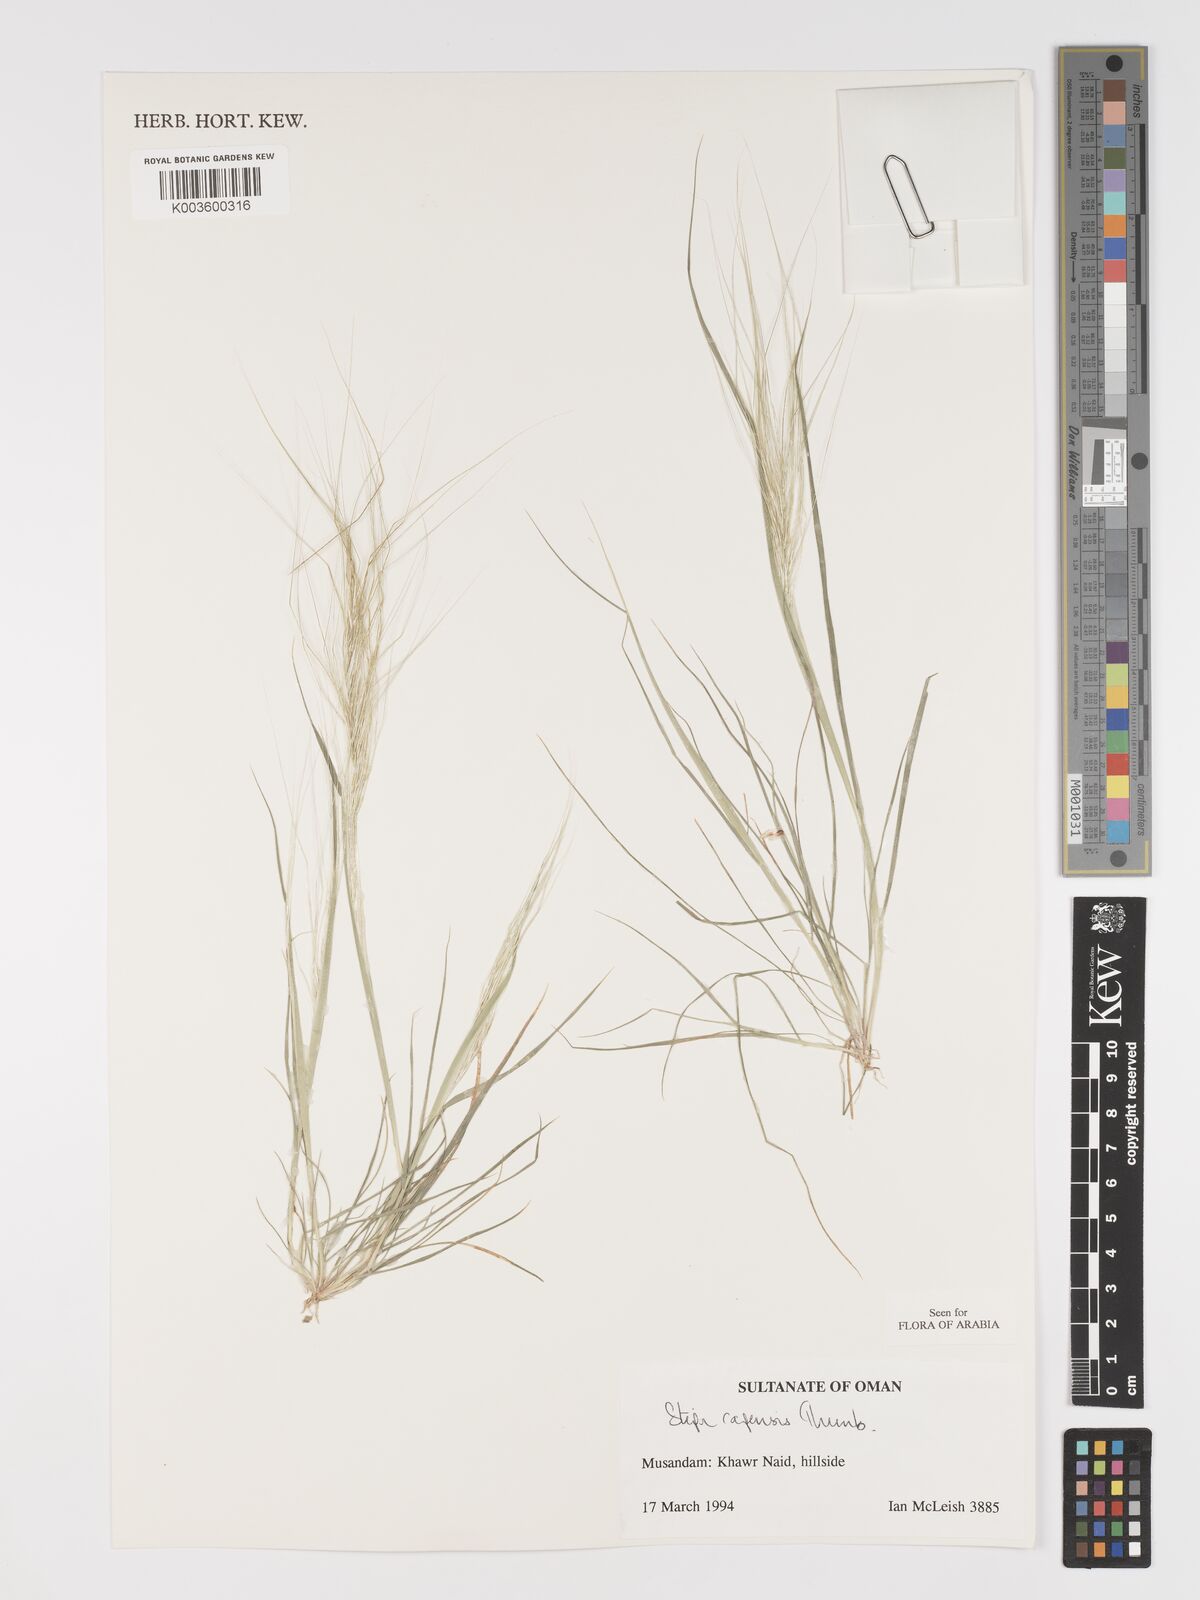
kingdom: Plantae
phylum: Tracheophyta
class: Liliopsida
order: Poales
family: Poaceae
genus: Stipellula
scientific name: Stipellula capensis
